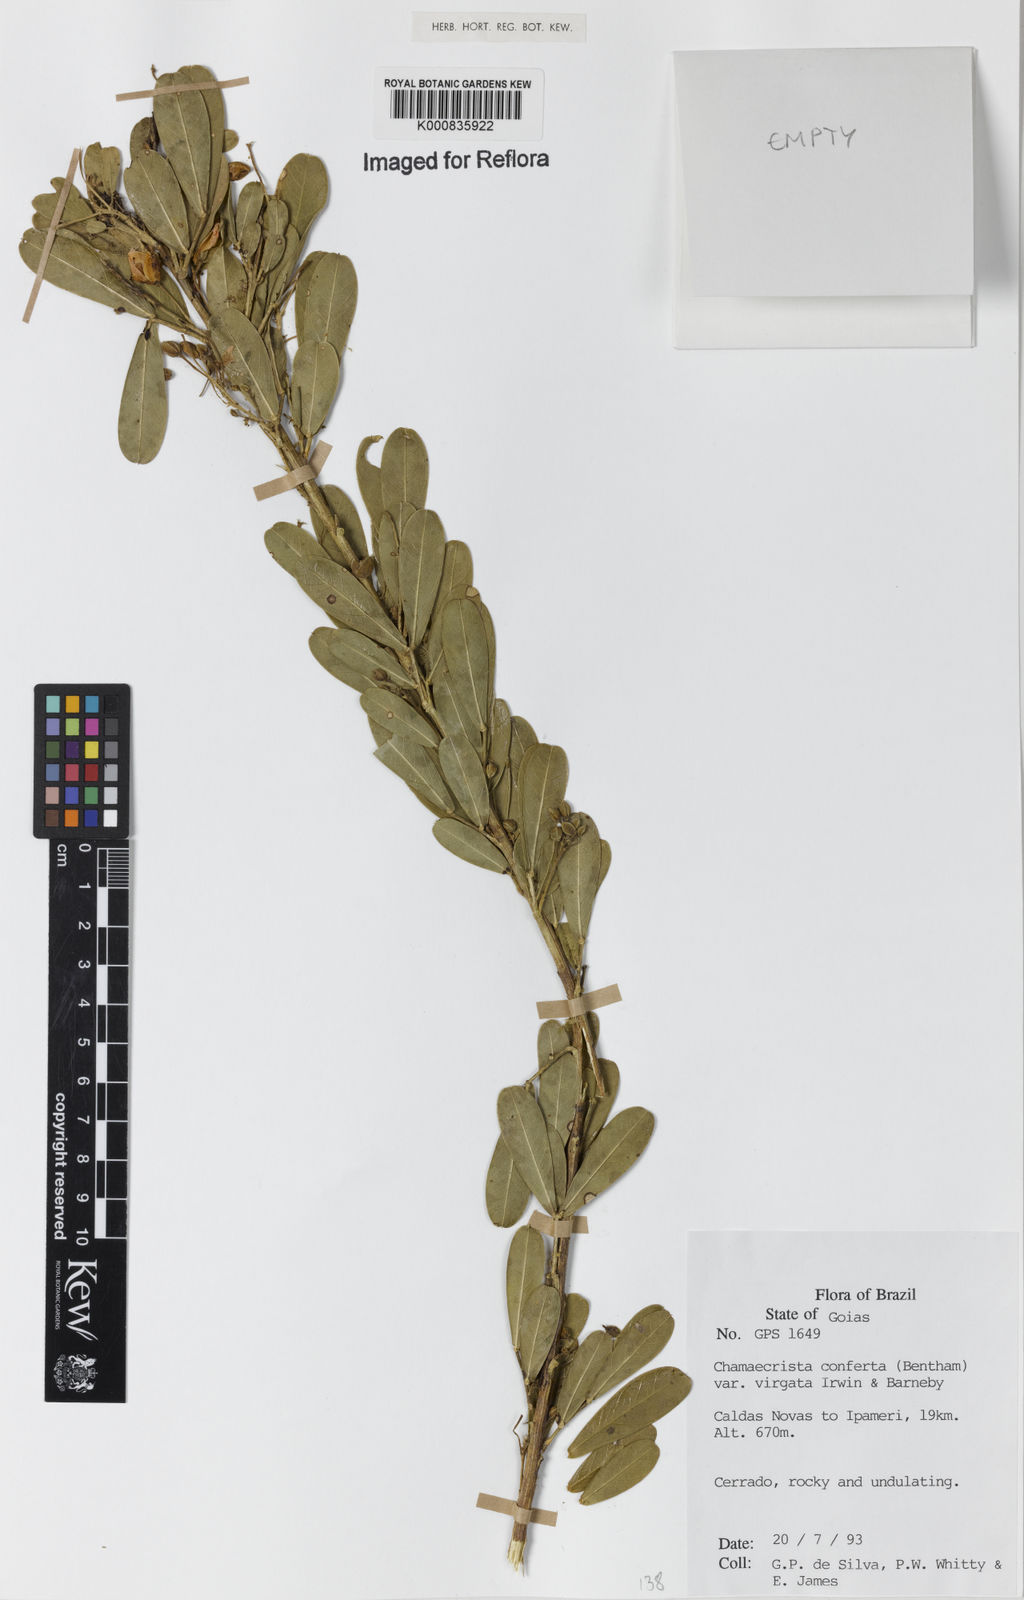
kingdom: Plantae
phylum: Tracheophyta
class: Magnoliopsida
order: Fabales
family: Fabaceae
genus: Chamaecrista
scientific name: Chamaecrista conferta
